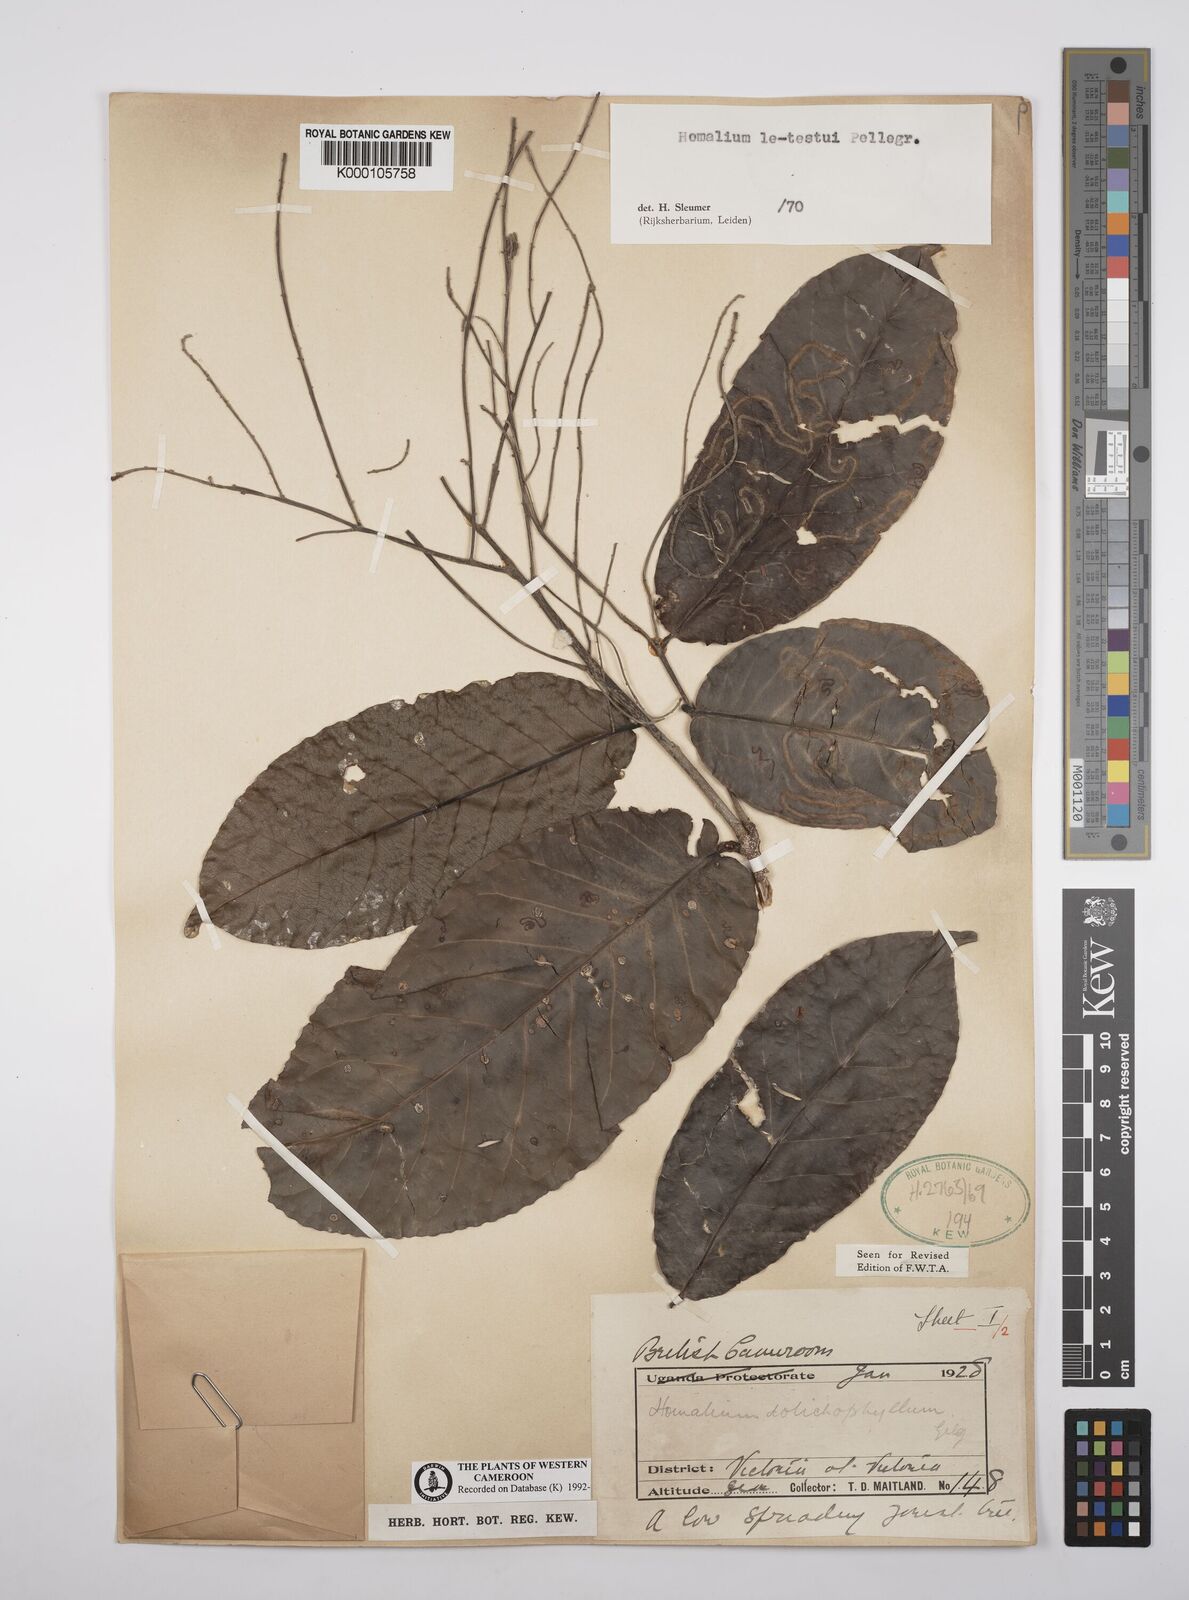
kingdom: Plantae
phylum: Tracheophyta
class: Magnoliopsida
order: Malpighiales
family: Salicaceae
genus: Homalium
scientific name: Homalium letestui
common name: African homalium
